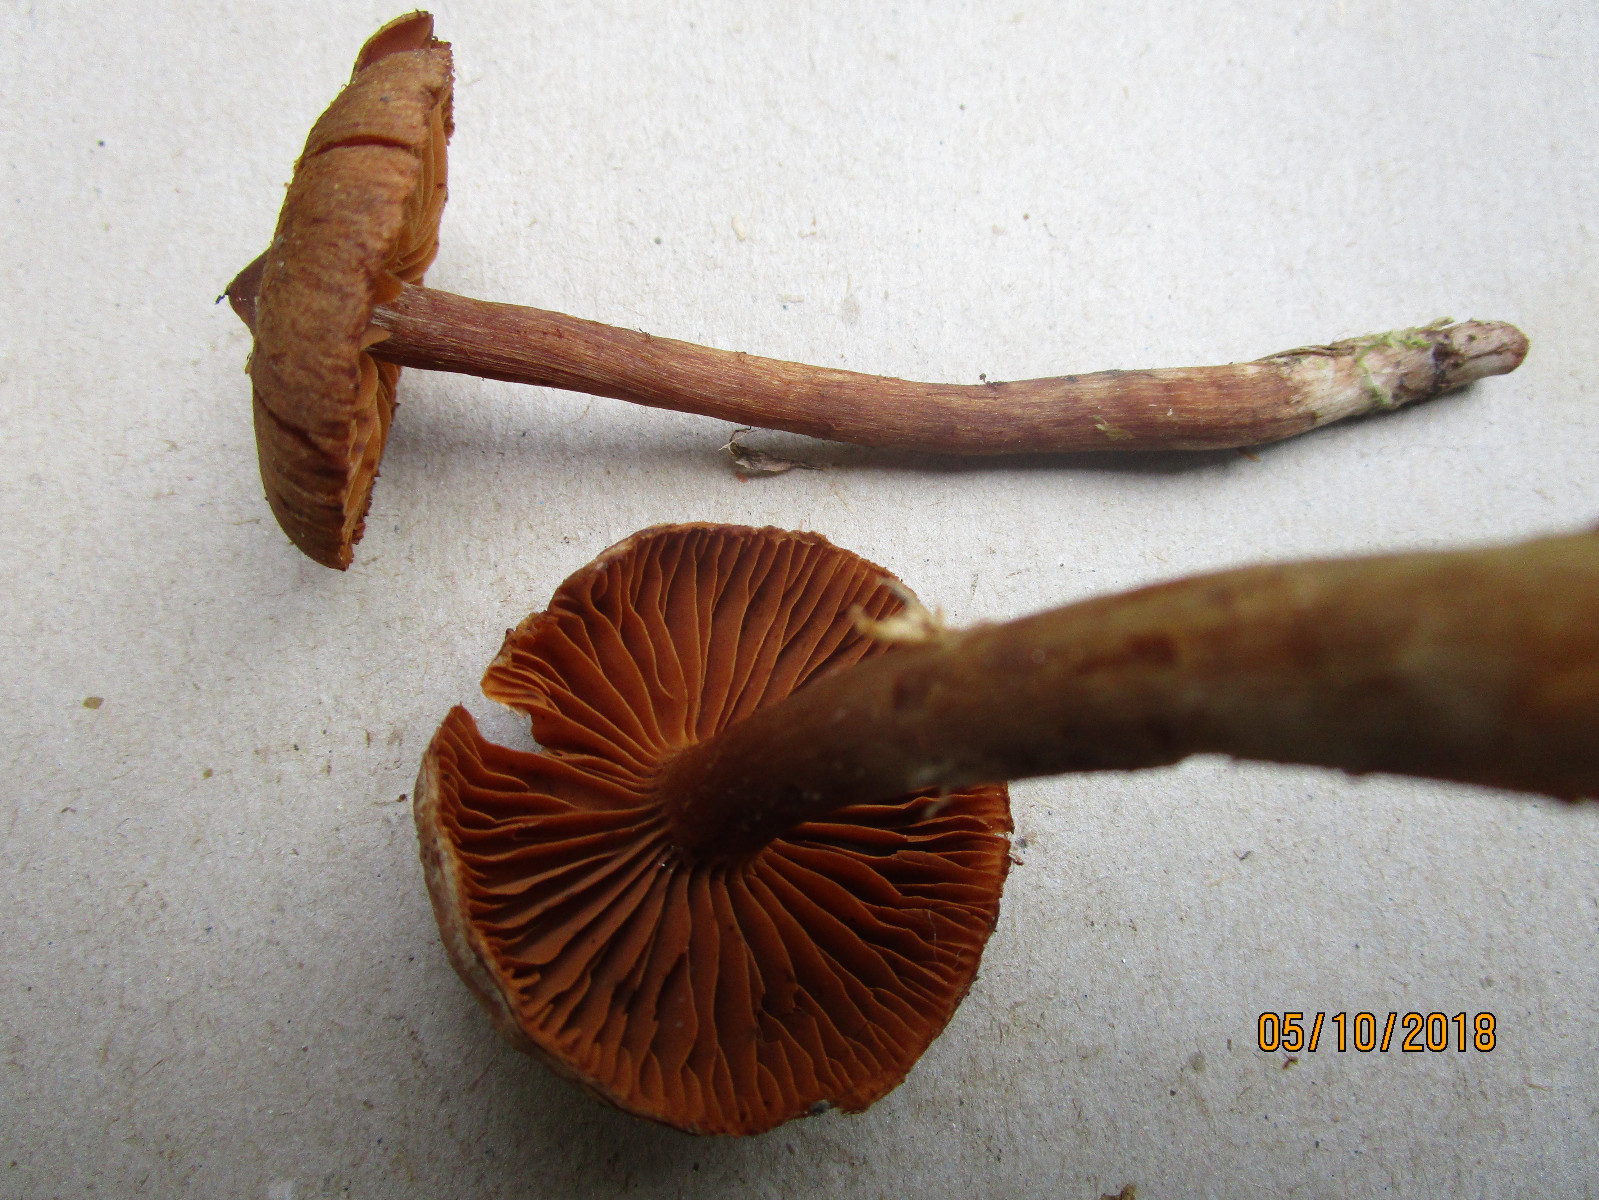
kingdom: Fungi
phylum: Basidiomycota
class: Agaricomycetes
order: Agaricales
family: Cortinariaceae
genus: Cortinarius
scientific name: Cortinarius
